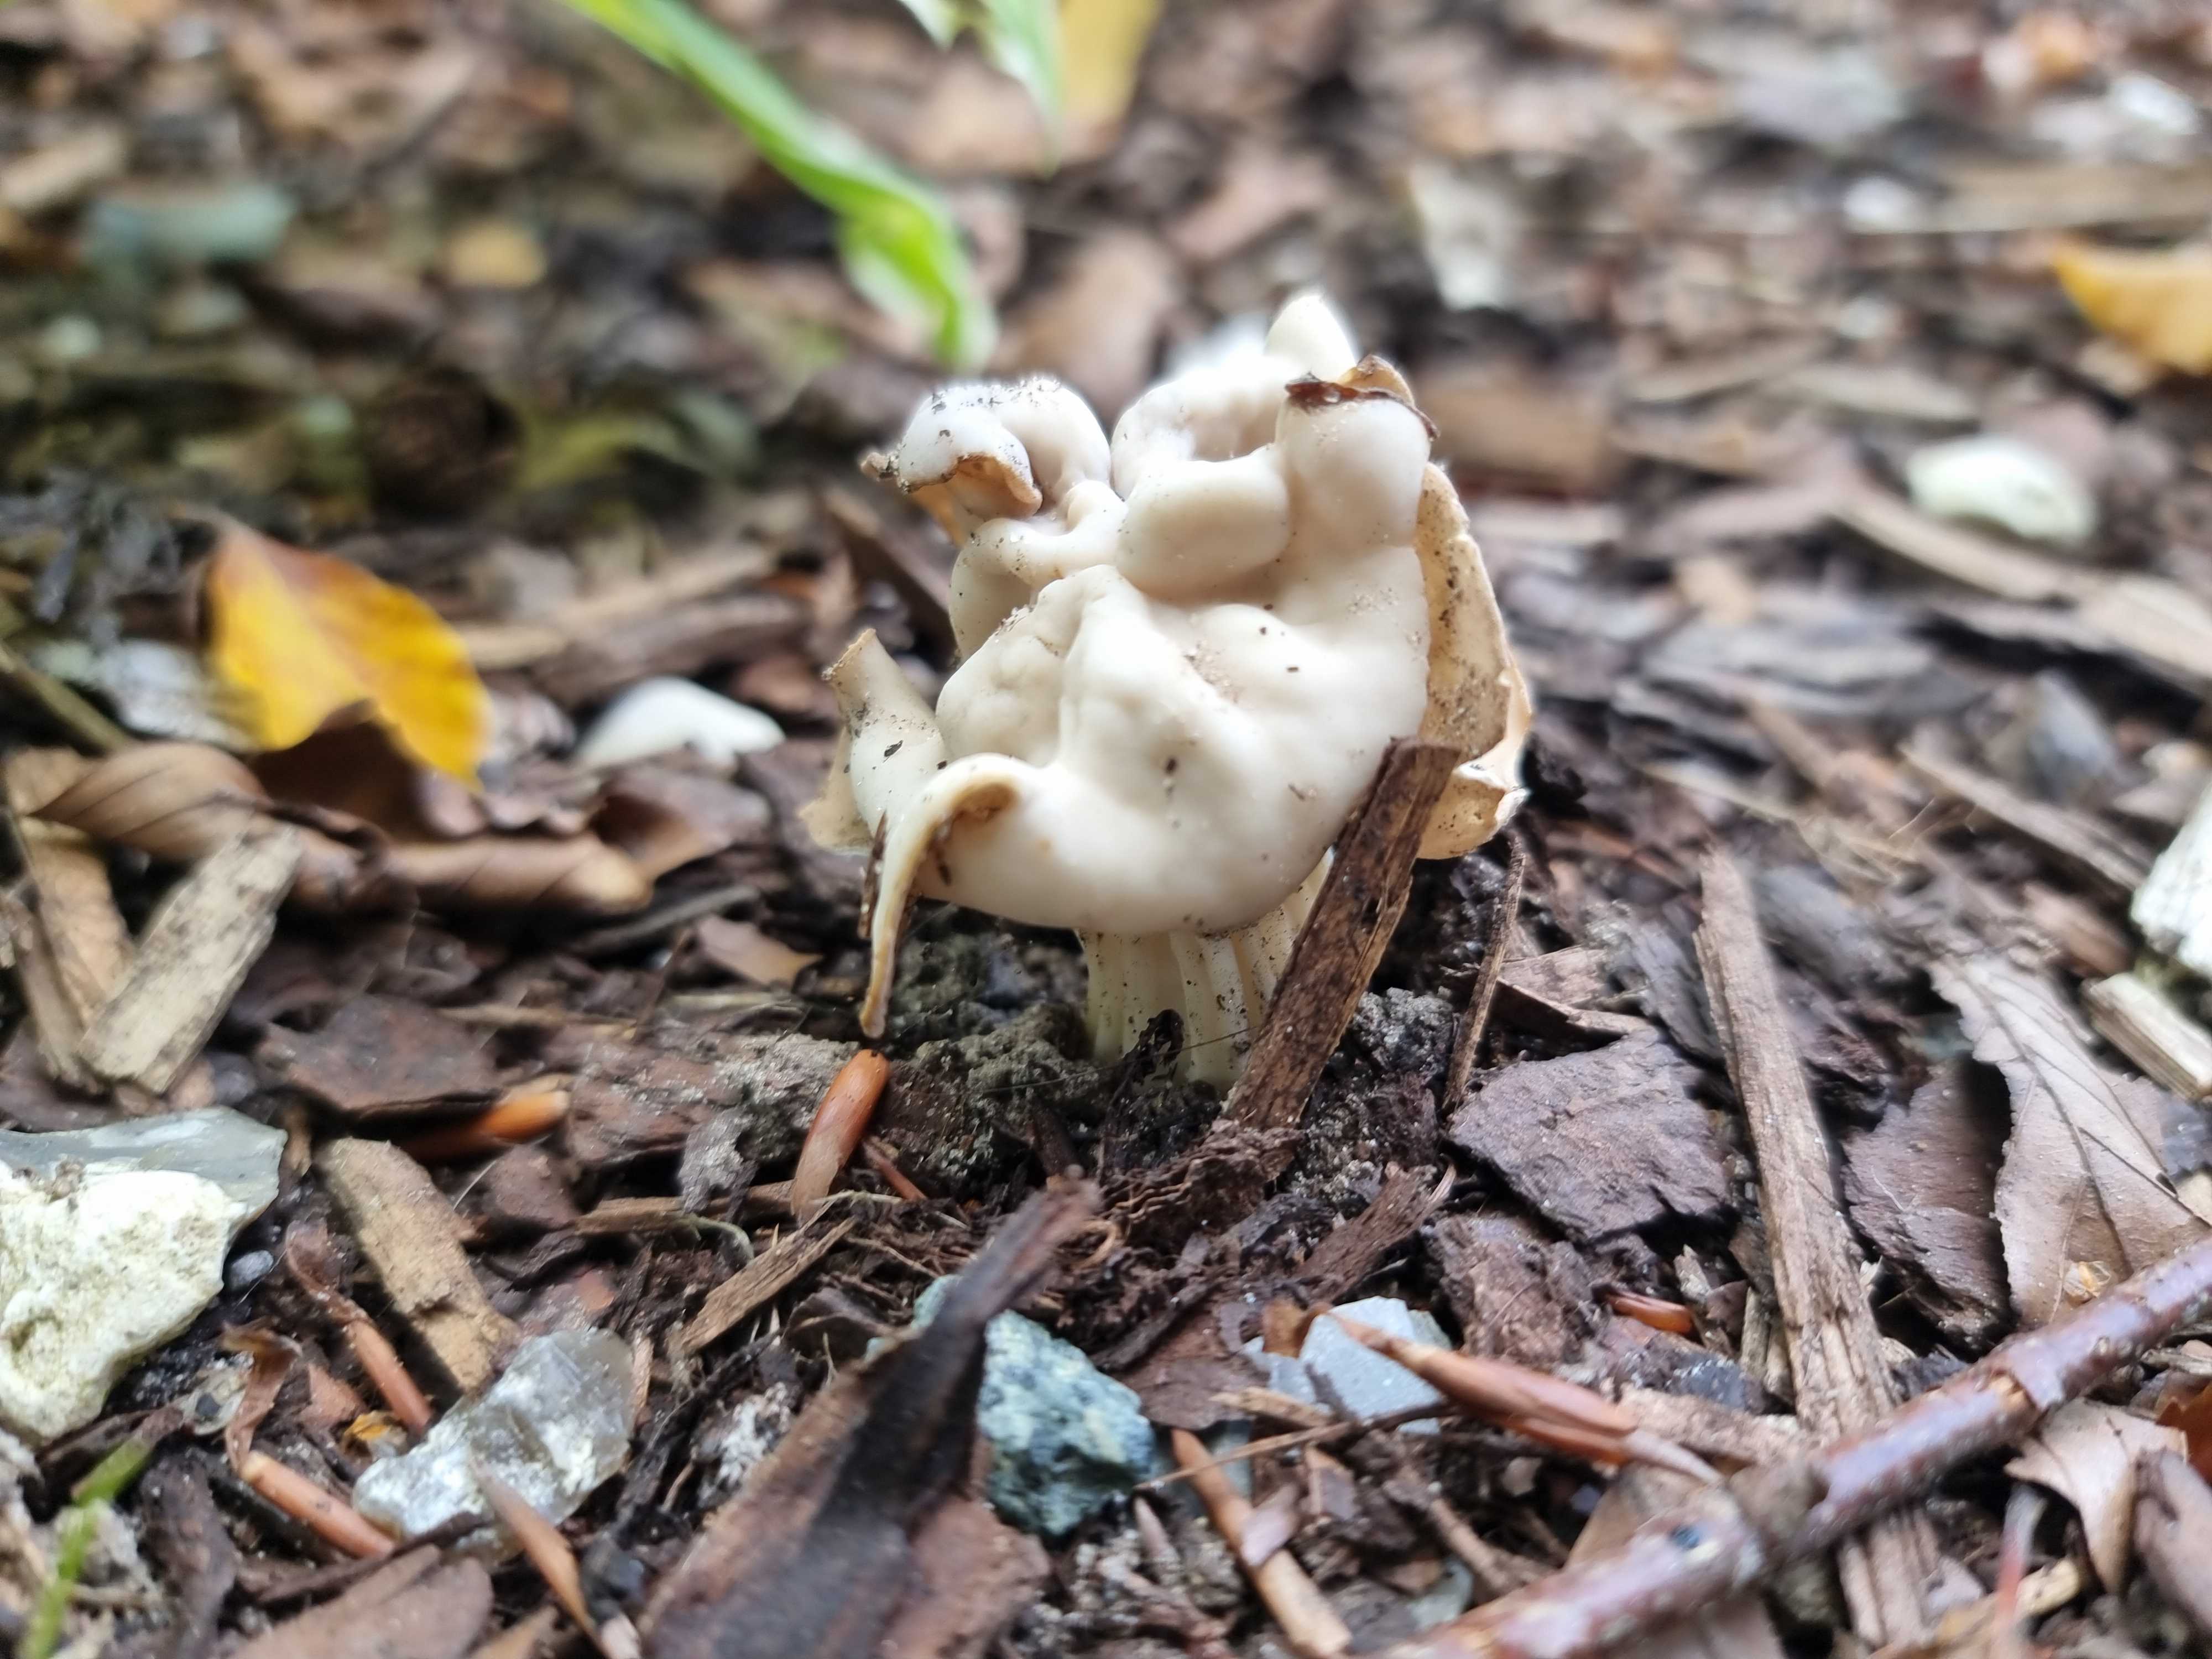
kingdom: Fungi
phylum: Ascomycota
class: Pezizomycetes
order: Pezizales
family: Helvellaceae
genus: Helvella
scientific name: Helvella crispa
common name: kruset foldhat
